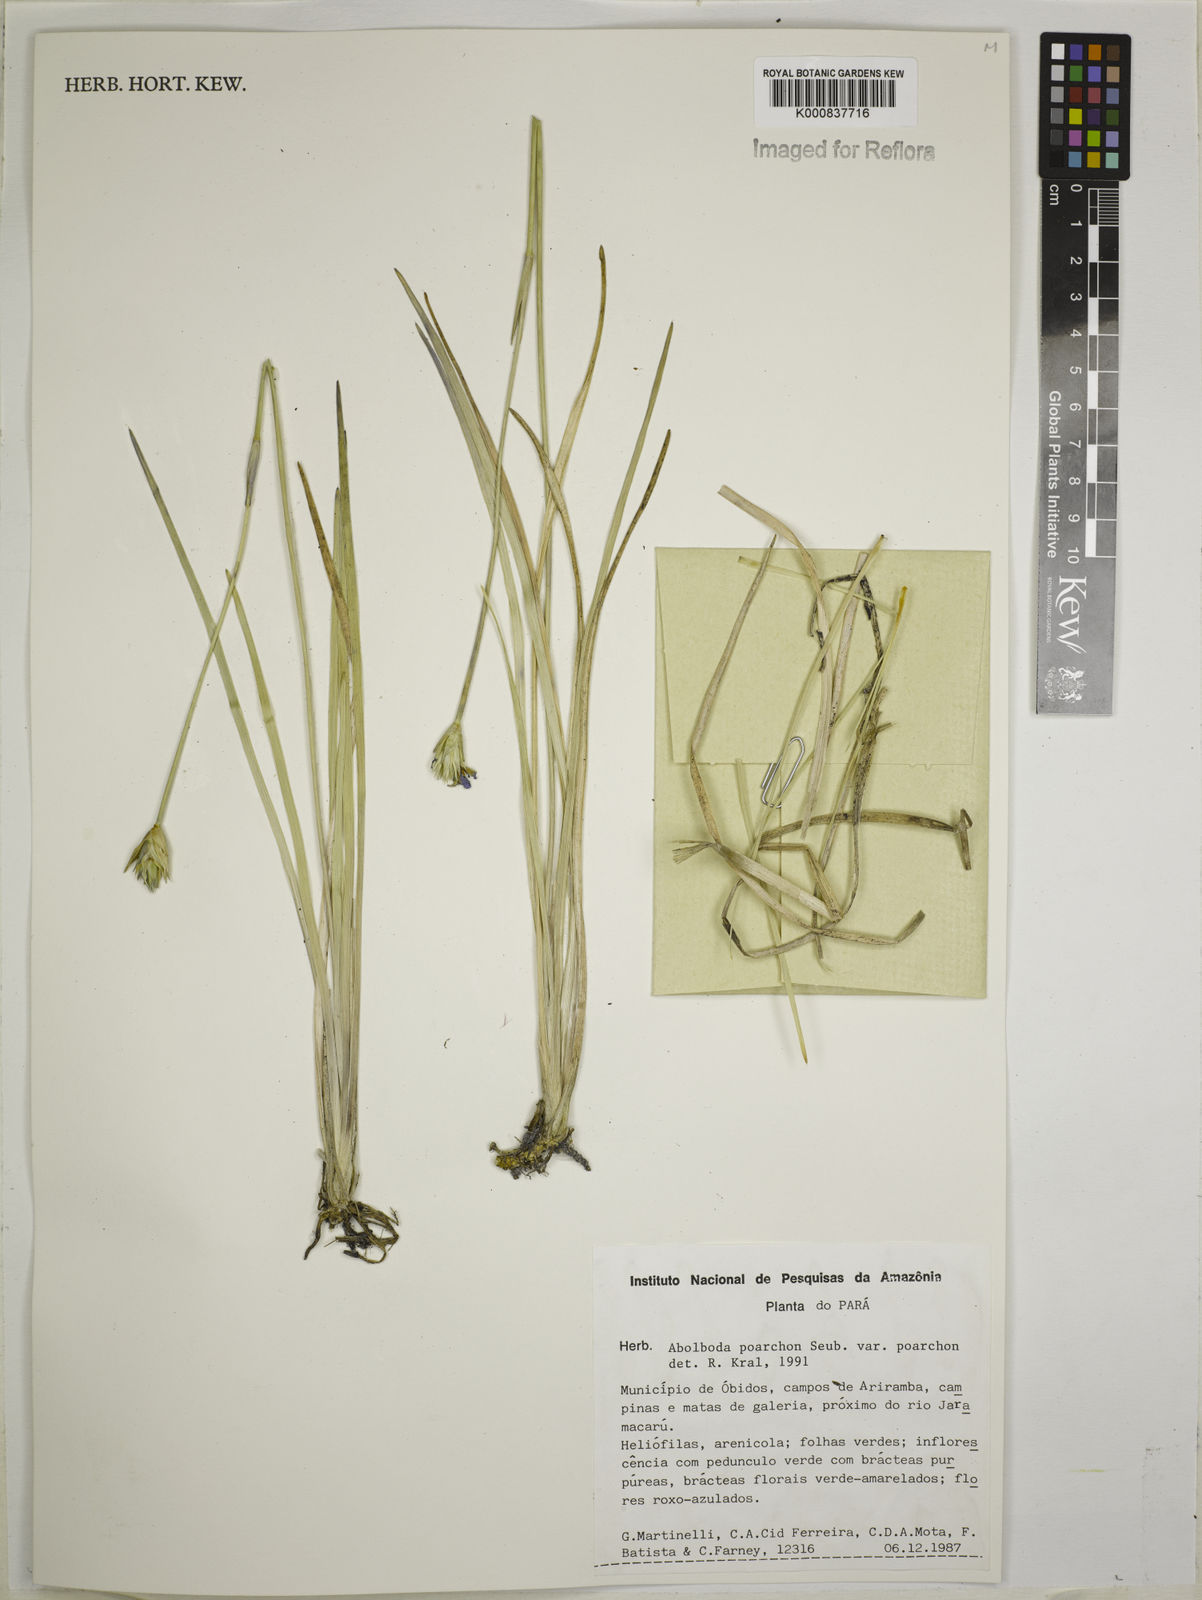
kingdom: Plantae
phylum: Tracheophyta
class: Liliopsida
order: Poales
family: Xyridaceae
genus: Abolboda
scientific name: Abolboda poarchon
